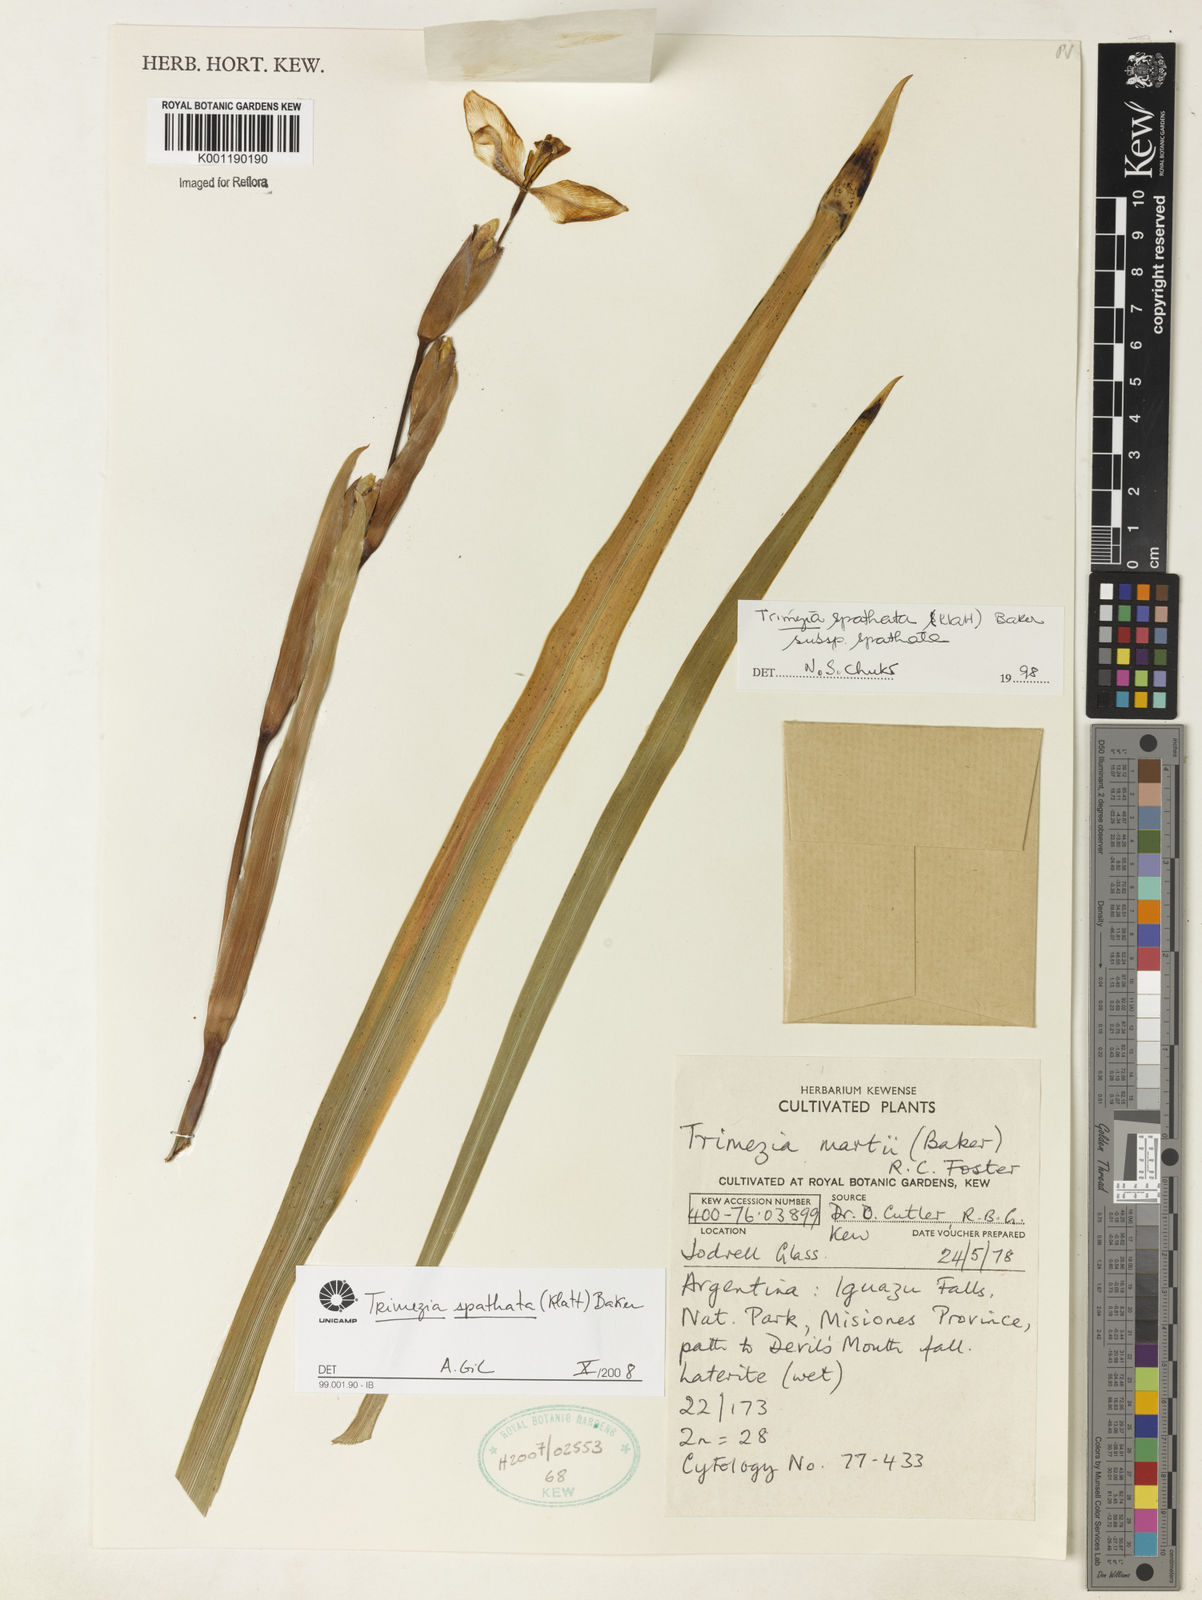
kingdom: Plantae
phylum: Tracheophyta
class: Liliopsida
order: Asparagales
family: Iridaceae
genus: Trimezia
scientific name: Trimezia spathata
